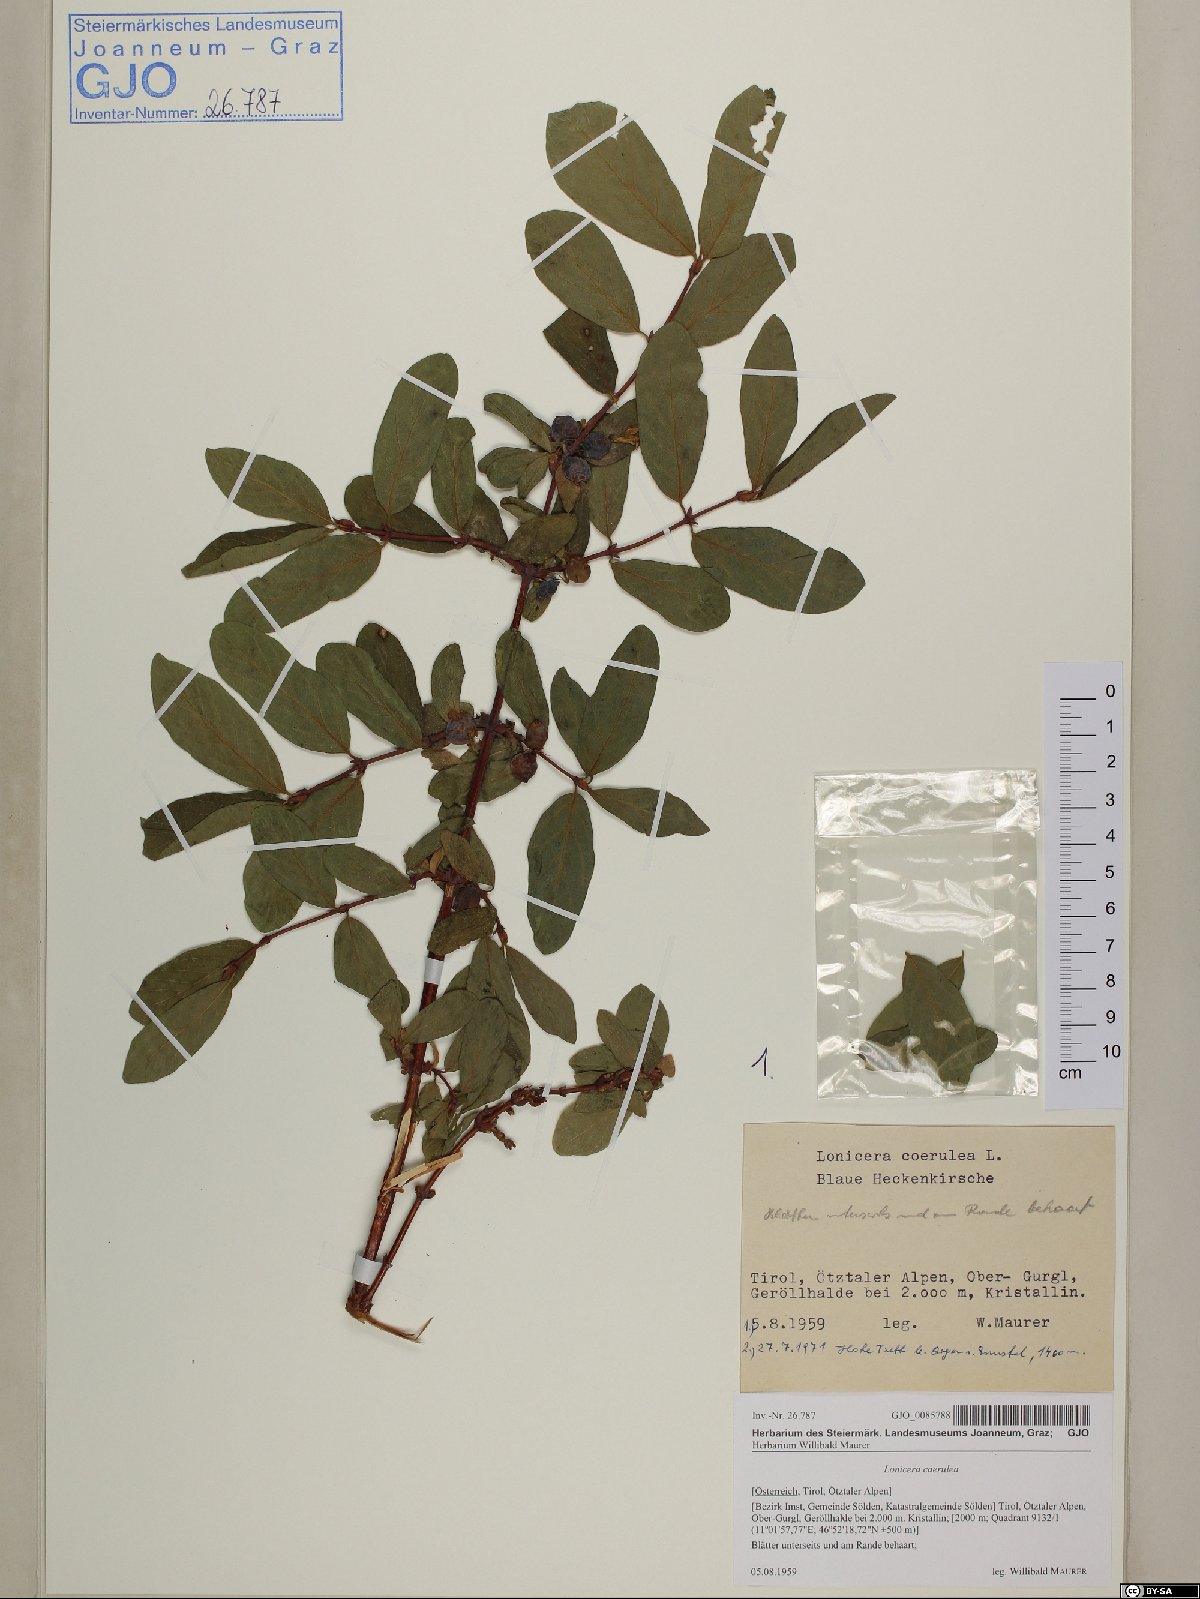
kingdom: Plantae
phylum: Tracheophyta
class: Magnoliopsida
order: Dipsacales
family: Caprifoliaceae
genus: Lonicera
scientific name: Lonicera caerulea
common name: Blue honeysuckle
